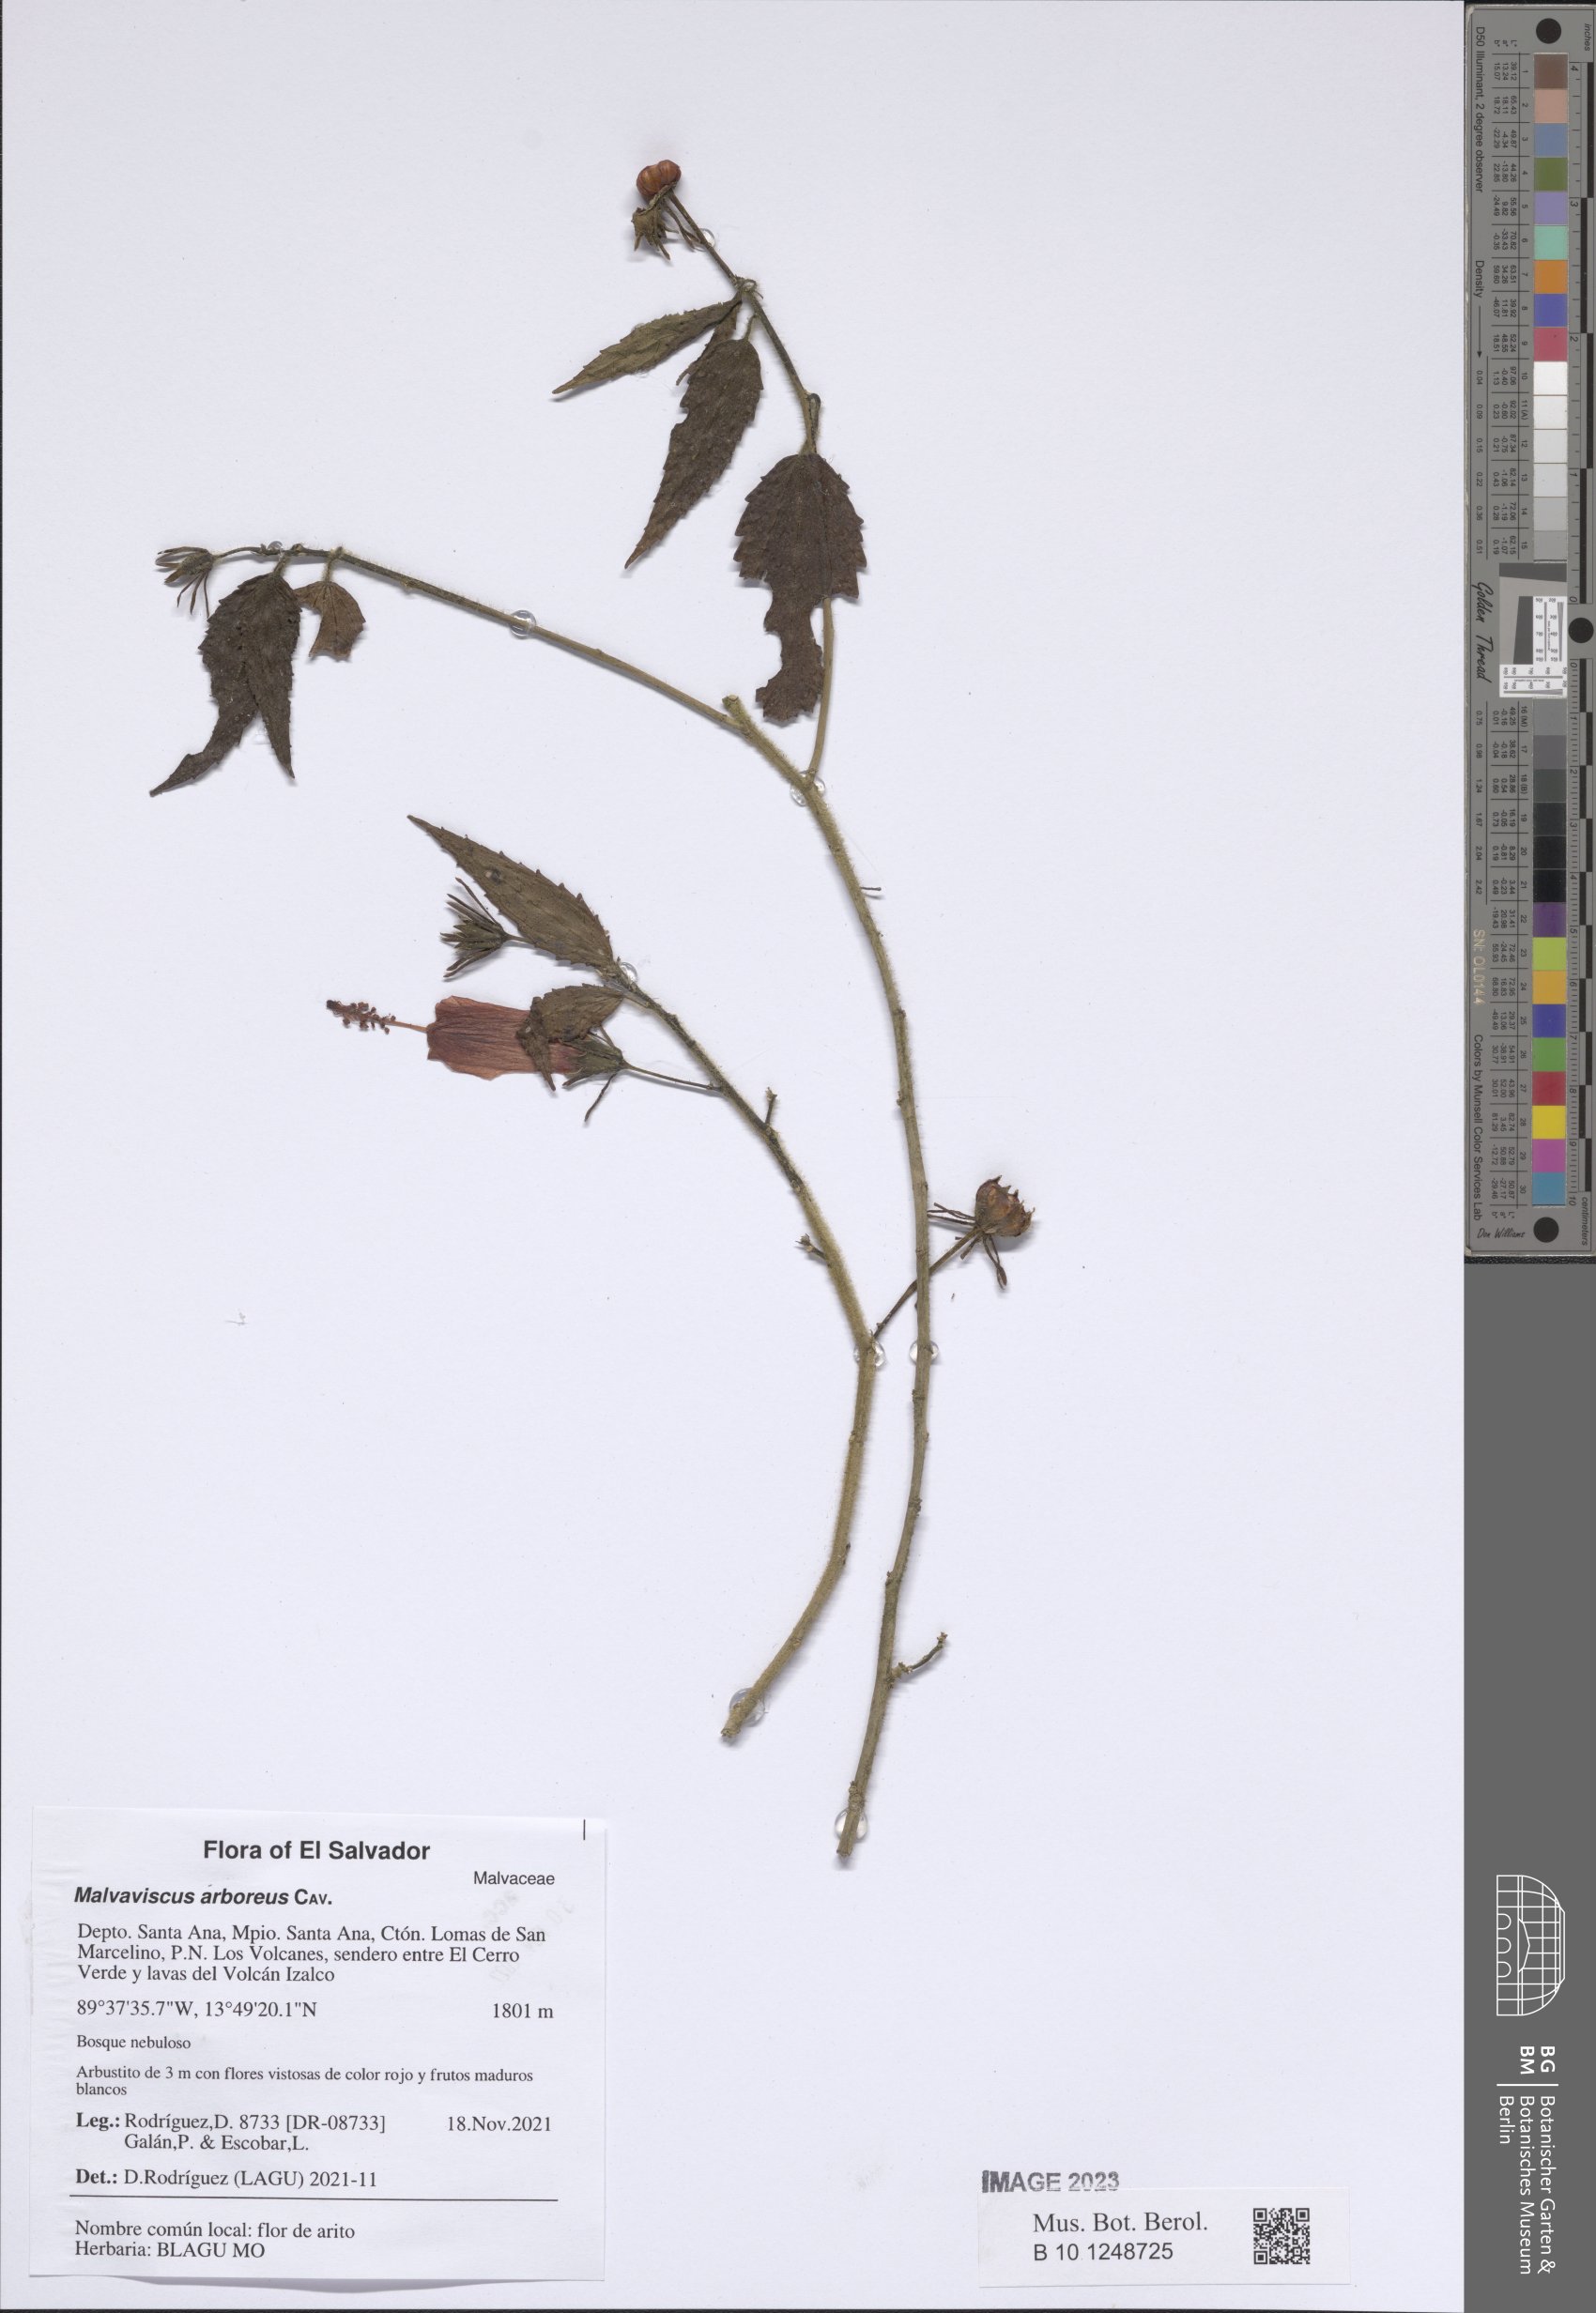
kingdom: Plantae
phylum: Tracheophyta
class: Magnoliopsida
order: Malvales
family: Malvaceae
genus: Malvaviscus
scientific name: Malvaviscus arboreus
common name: Wax mallow
